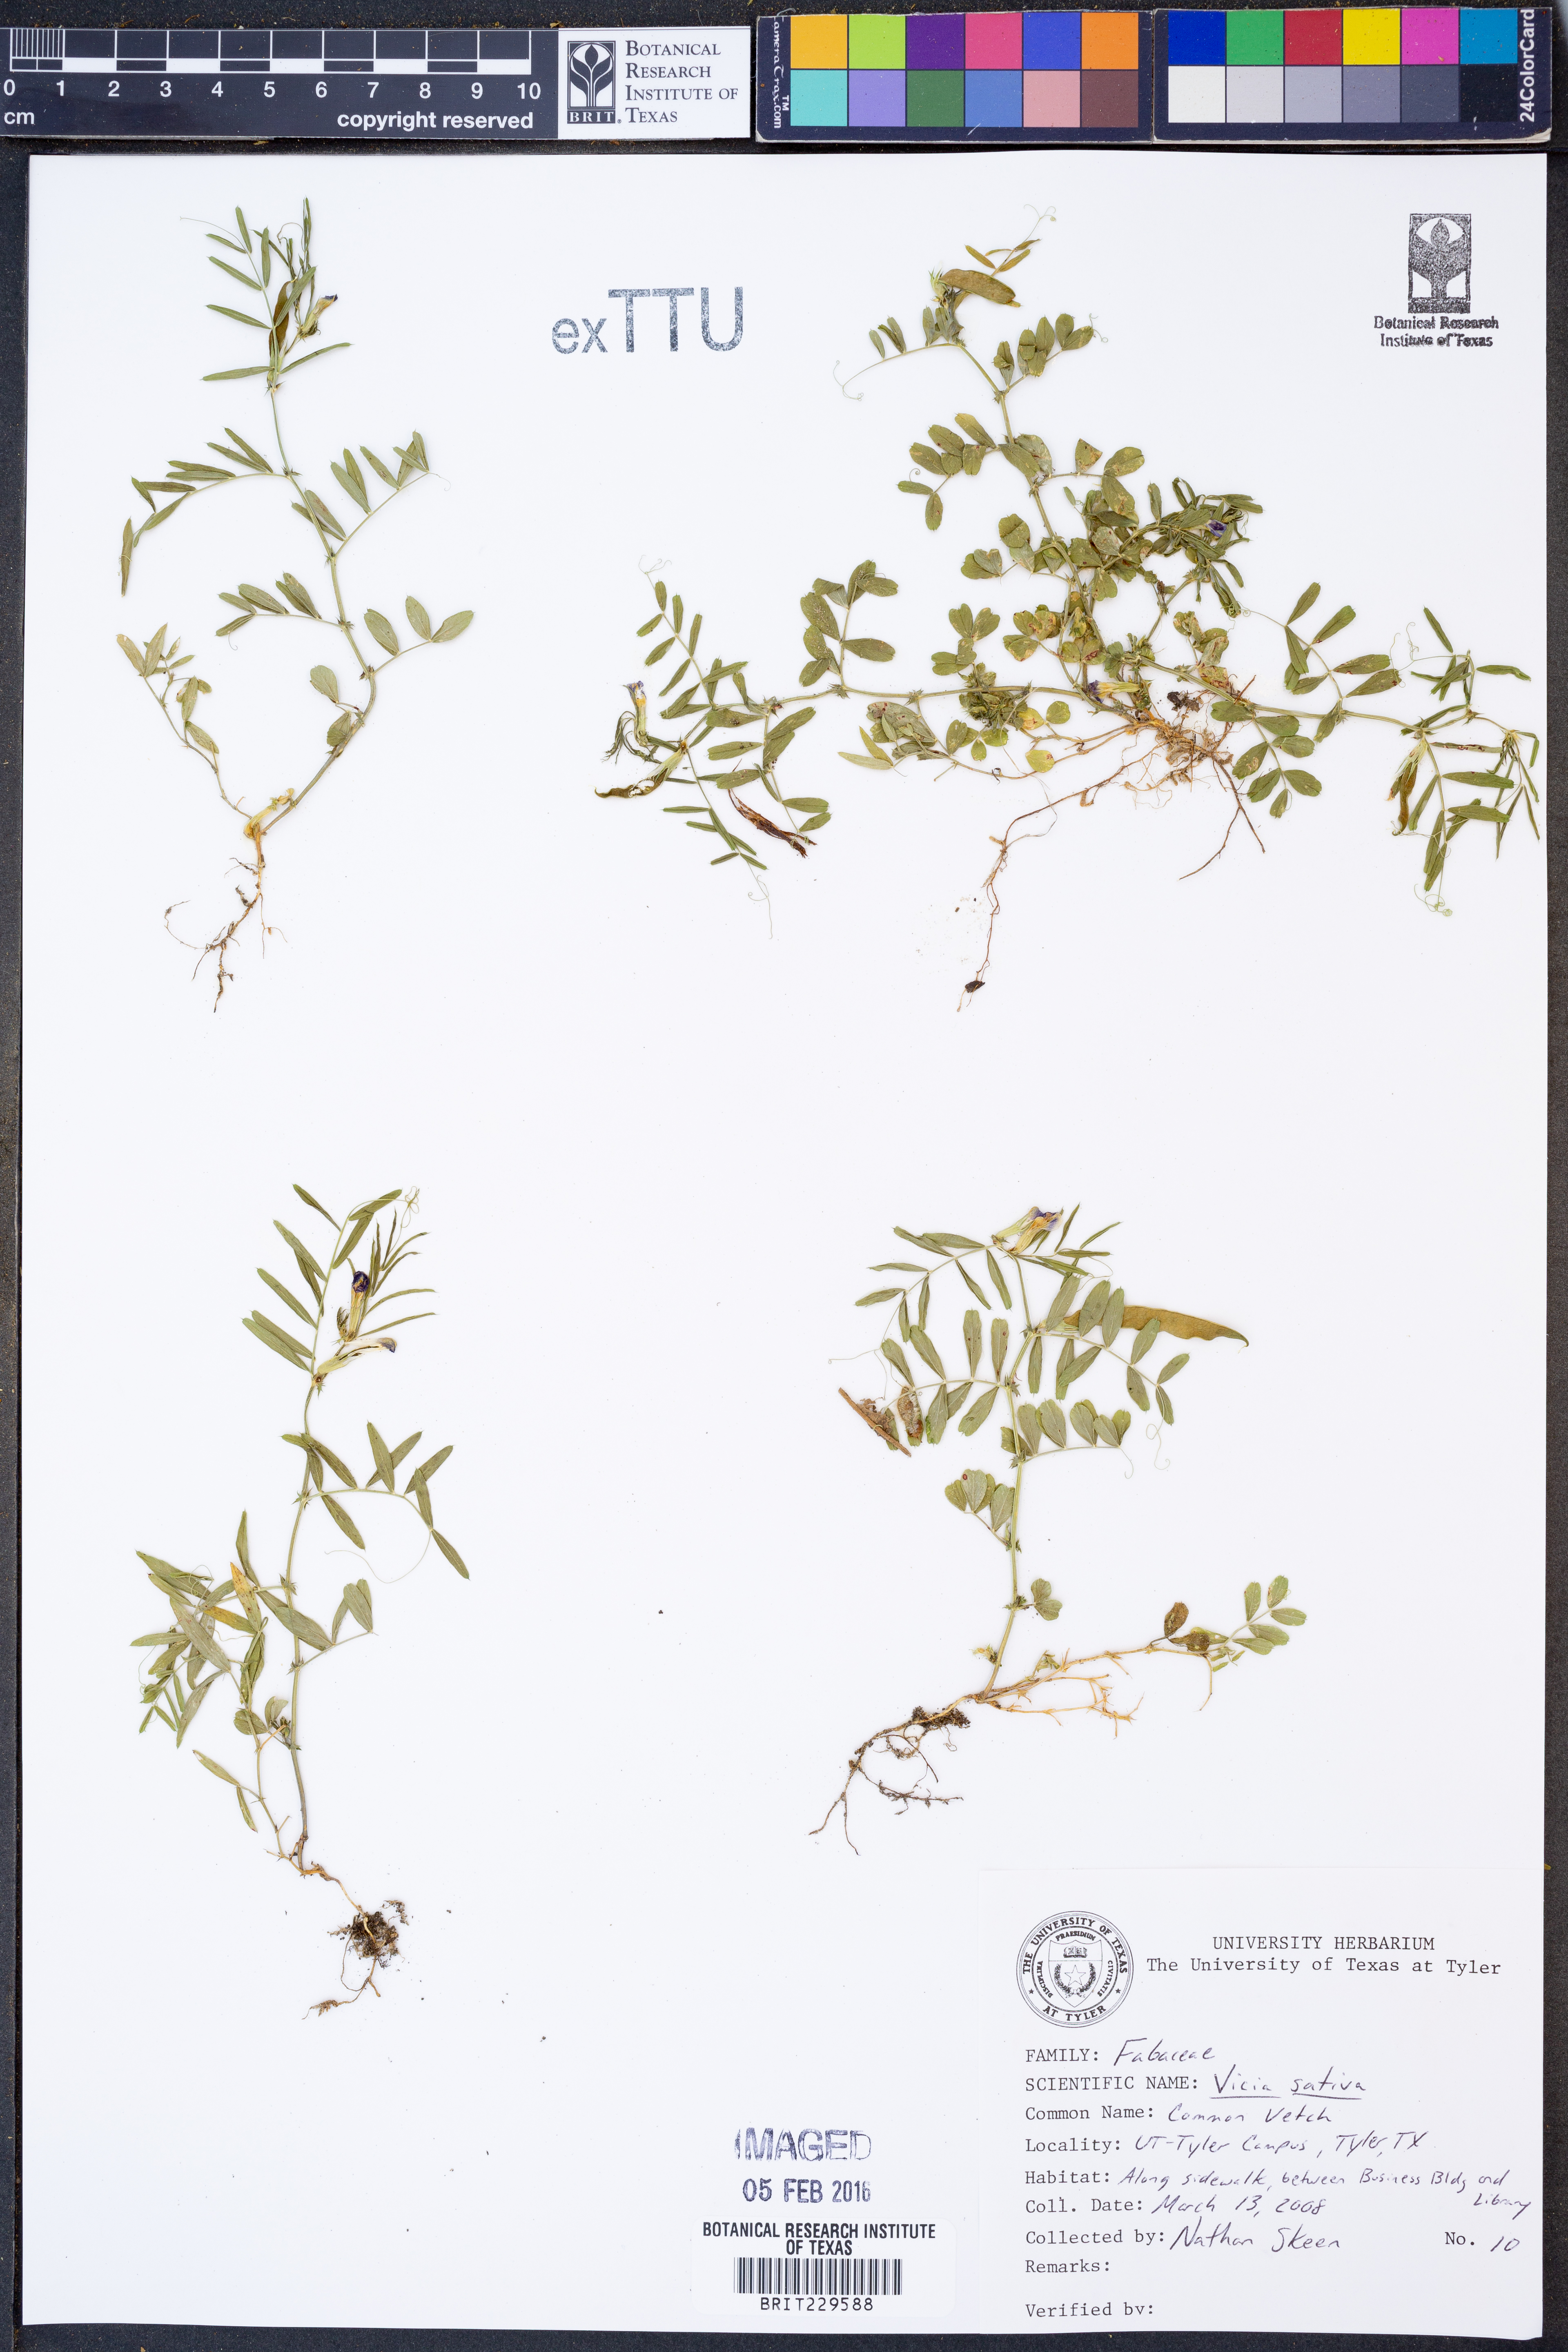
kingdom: Plantae
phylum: Tracheophyta
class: Magnoliopsida
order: Fabales
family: Fabaceae
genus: Vicia
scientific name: Vicia sativa
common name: Garden vetch
